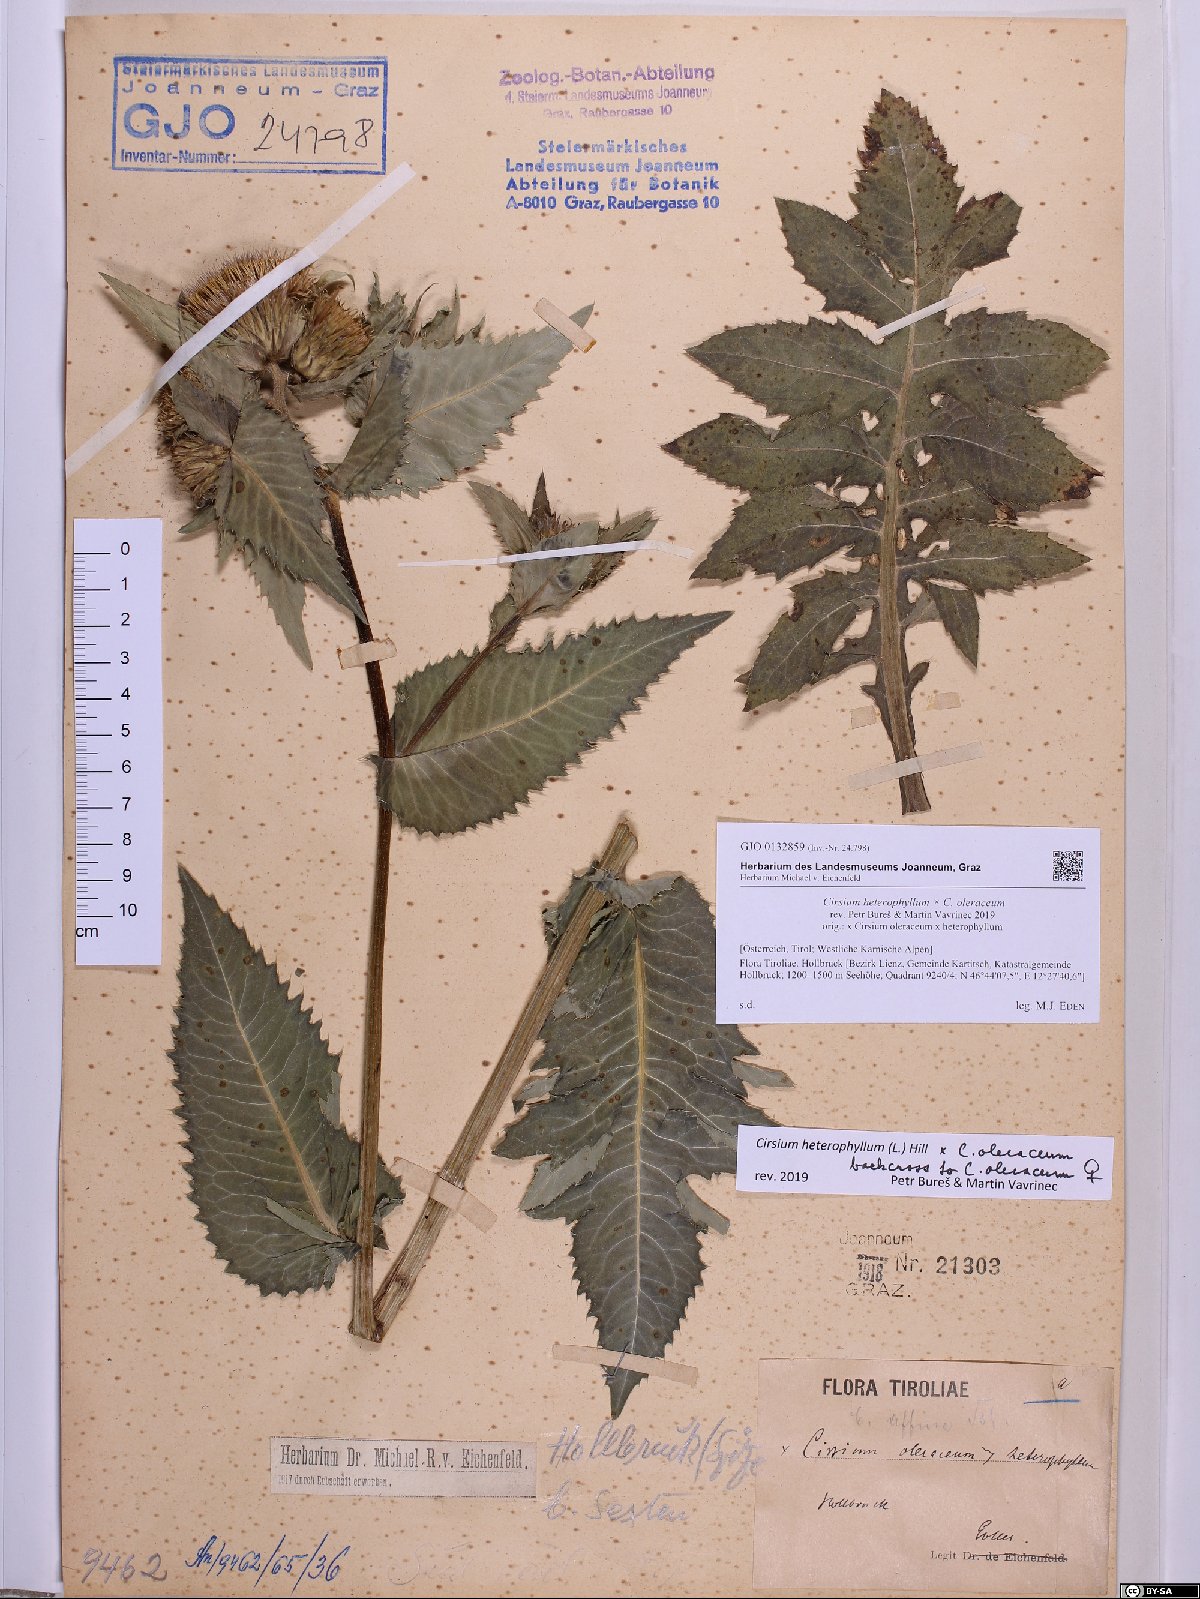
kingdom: Plantae
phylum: Tracheophyta
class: Magnoliopsida
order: Asterales
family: Asteraceae
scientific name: Asteraceae
